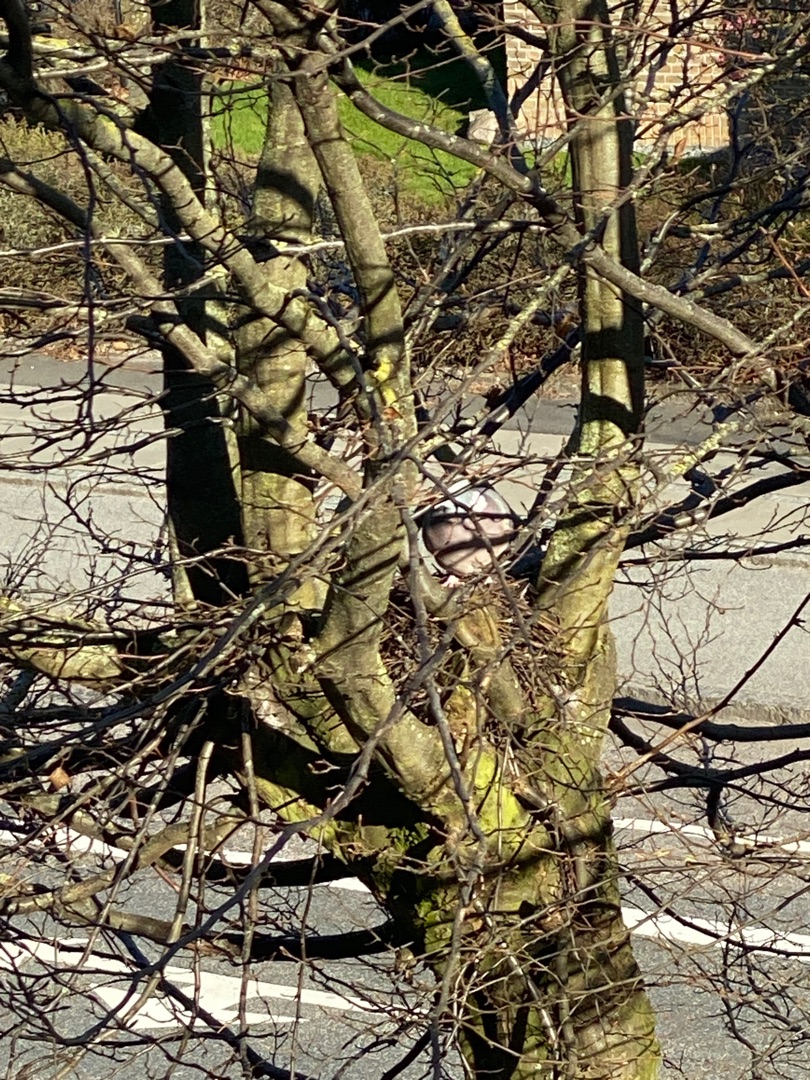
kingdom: Animalia
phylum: Chordata
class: Aves
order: Columbiformes
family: Columbidae
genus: Columba
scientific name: Columba palumbus
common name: Ringdue
